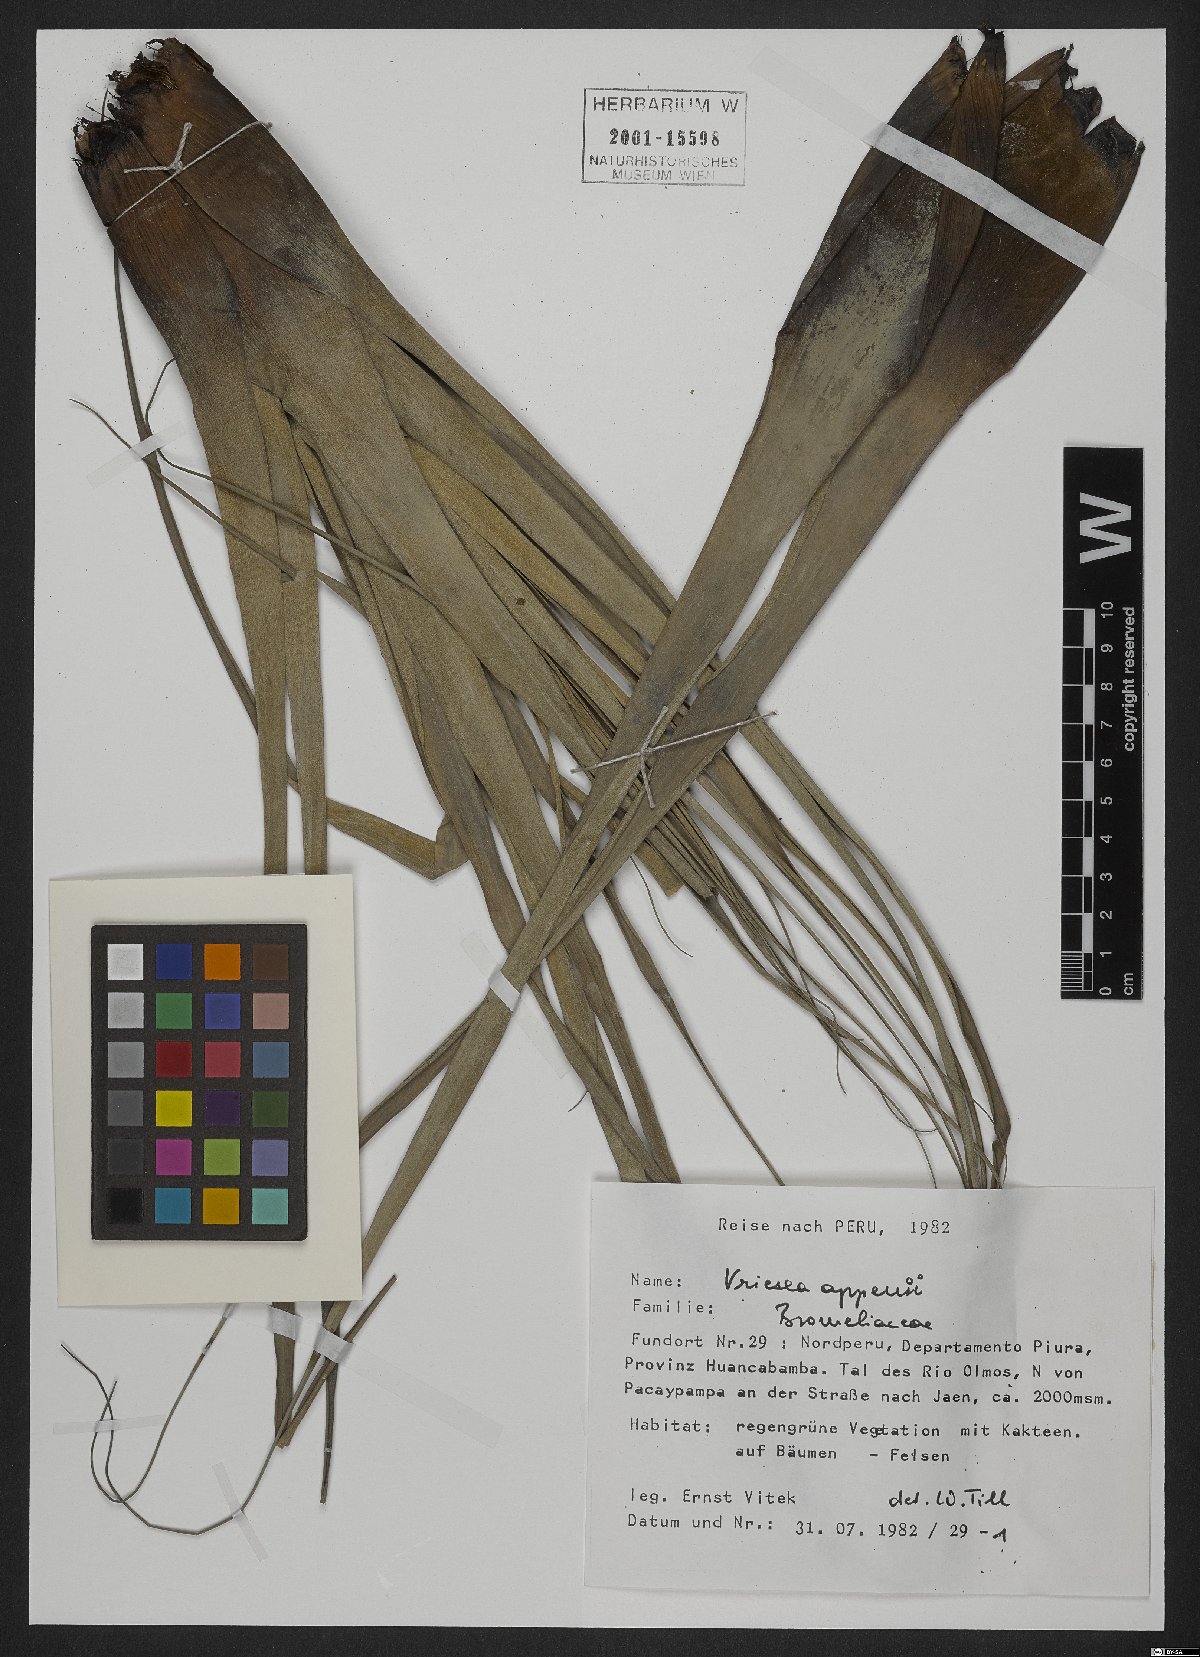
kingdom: Plantae
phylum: Tracheophyta
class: Liliopsida
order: Poales
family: Bromeliaceae
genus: Tillandsia
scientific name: Tillandsia appenii
